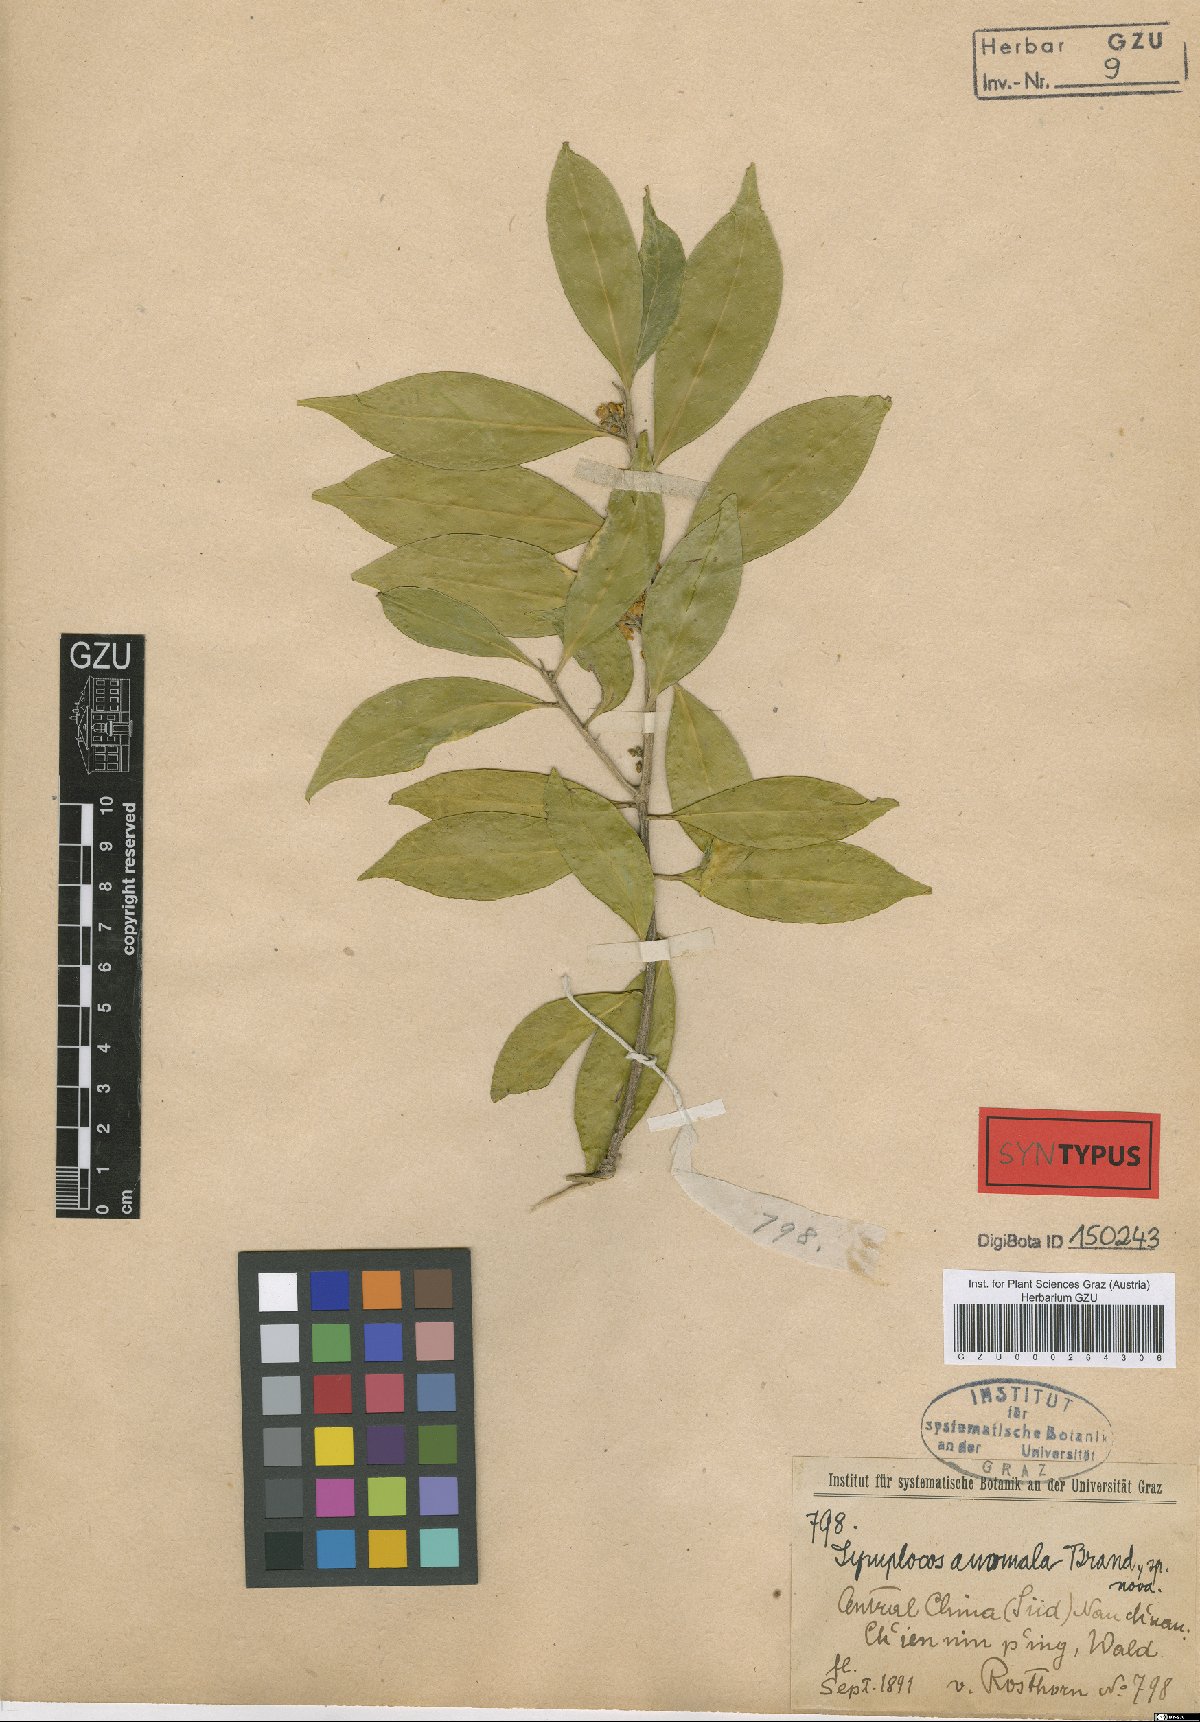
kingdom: Plantae
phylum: Tracheophyta
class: Magnoliopsida
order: Ericales
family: Symplocaceae
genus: Symplocos
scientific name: Symplocos anomala
